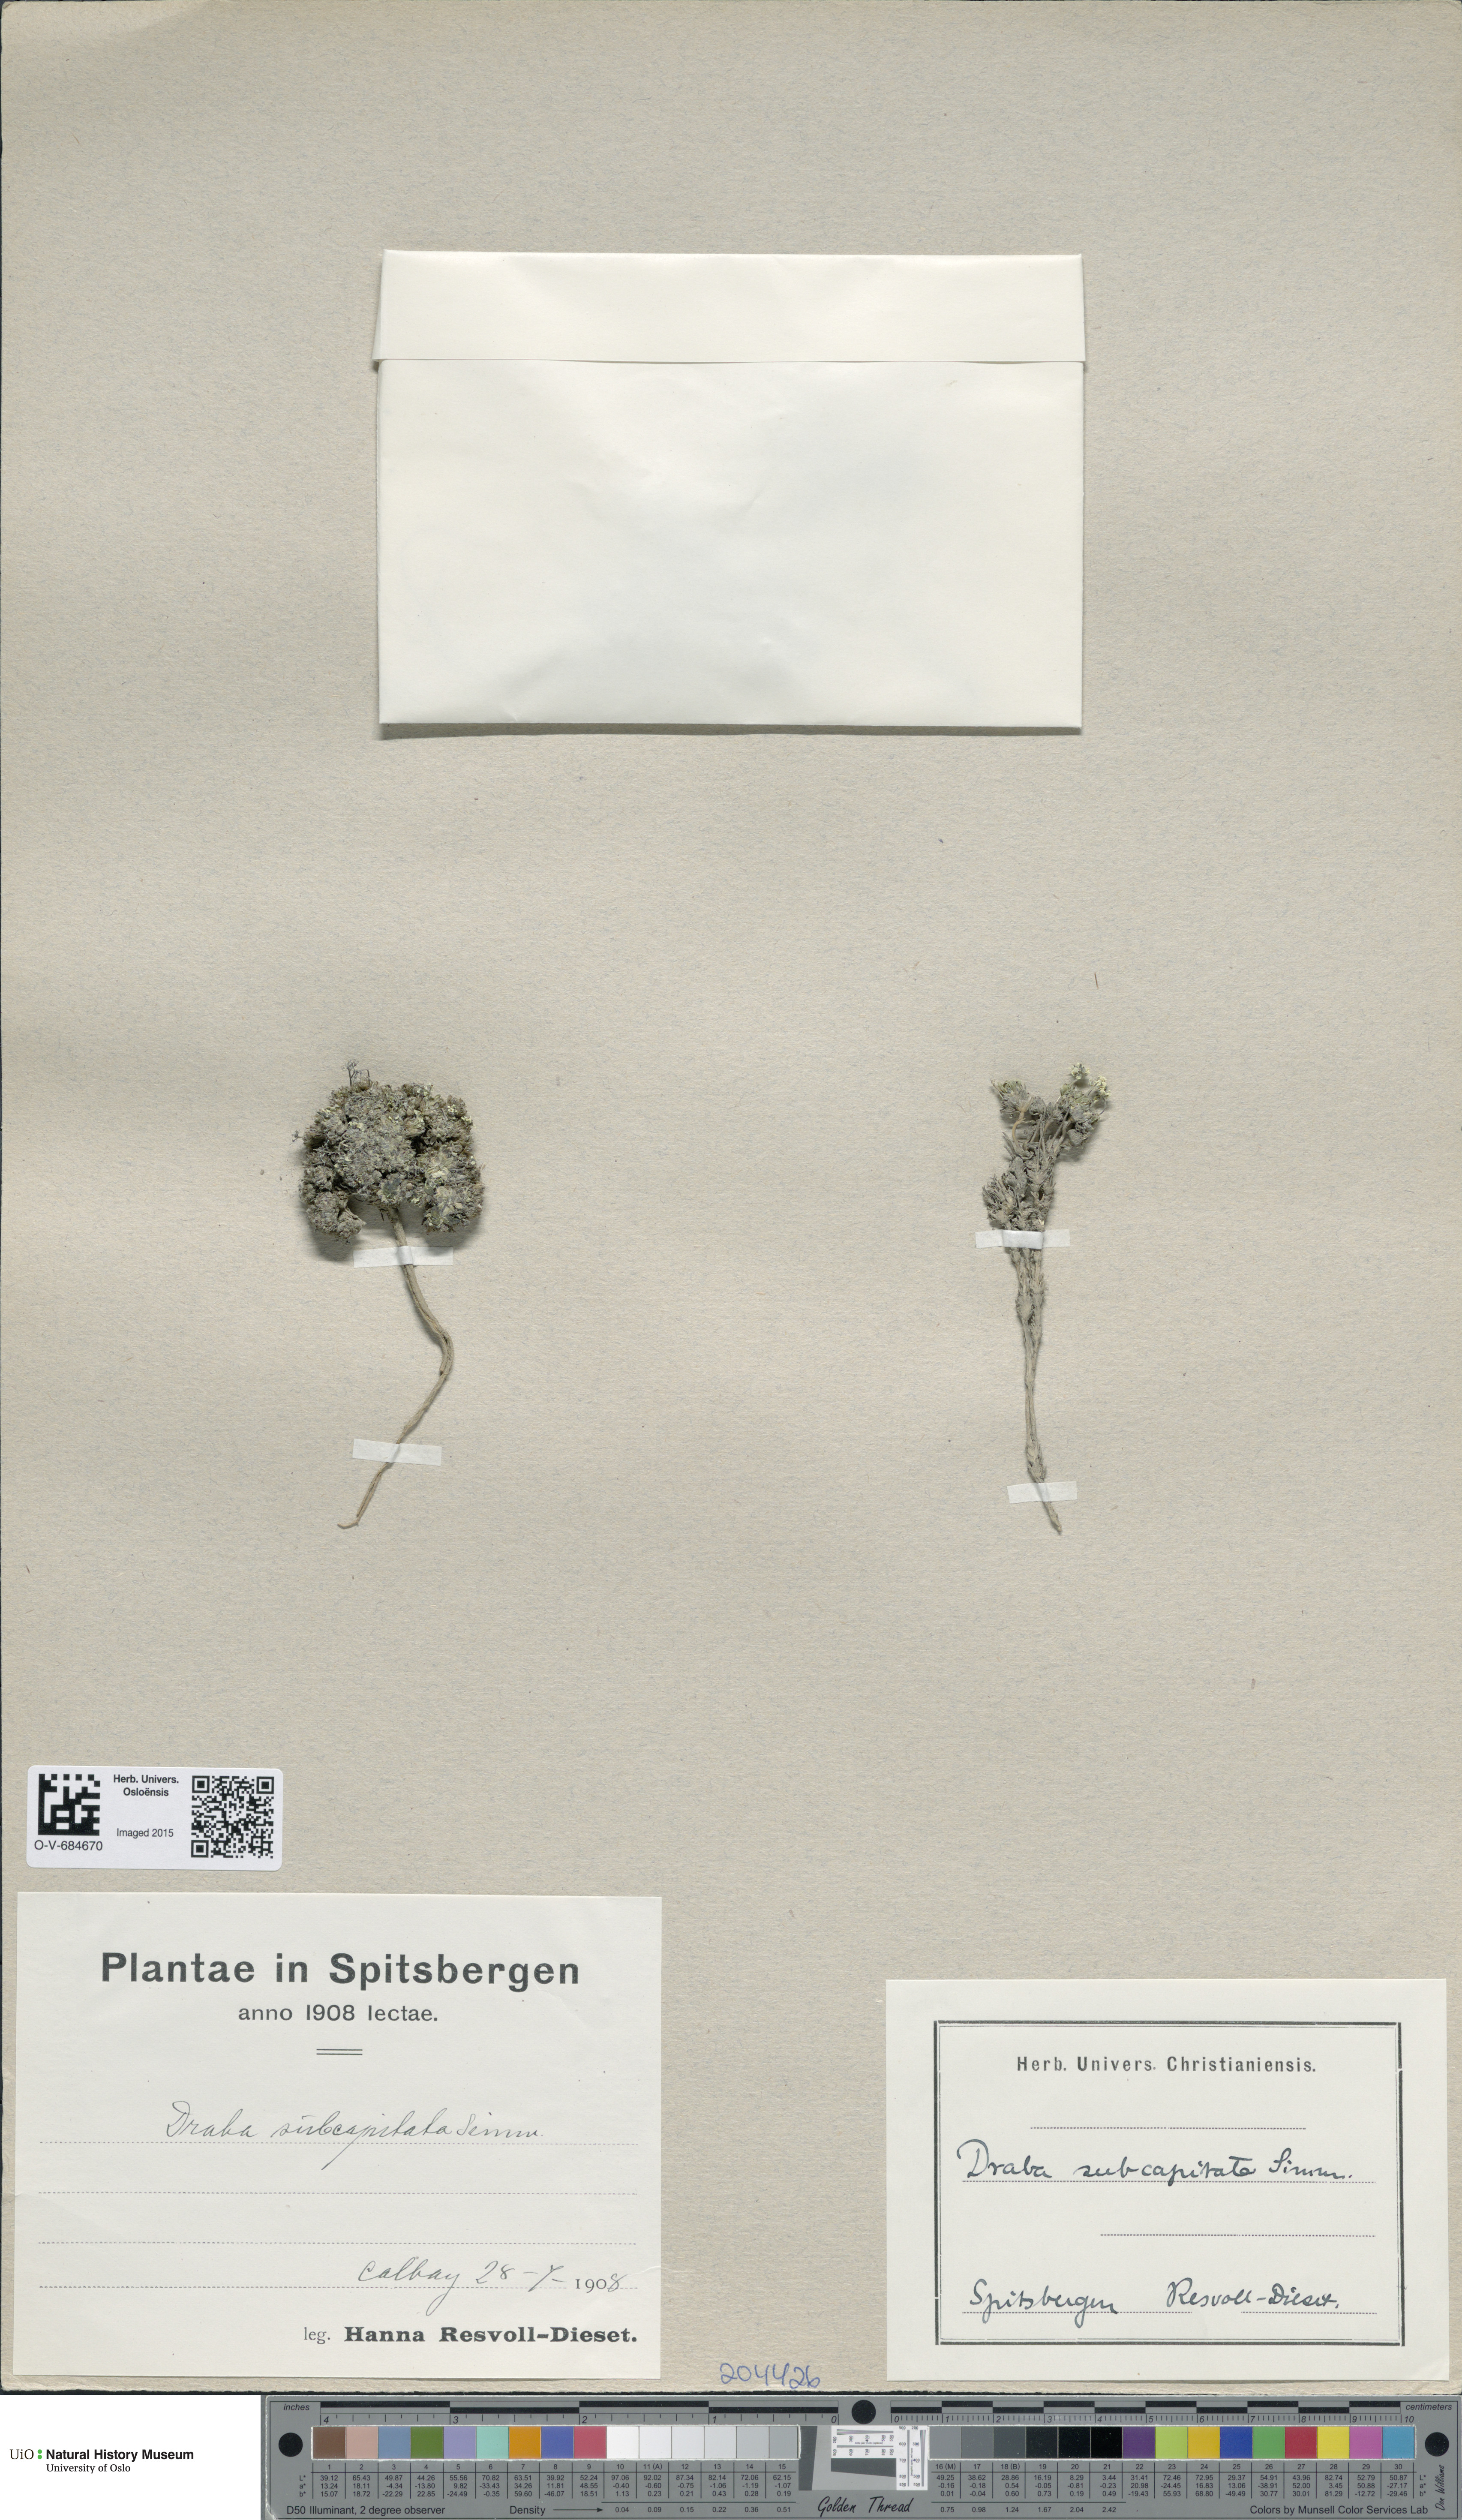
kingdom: Plantae
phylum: Tracheophyta
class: Magnoliopsida
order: Brassicales
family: Brassicaceae
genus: Draba
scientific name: Draba subcapitata
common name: Ellesmere island draba
